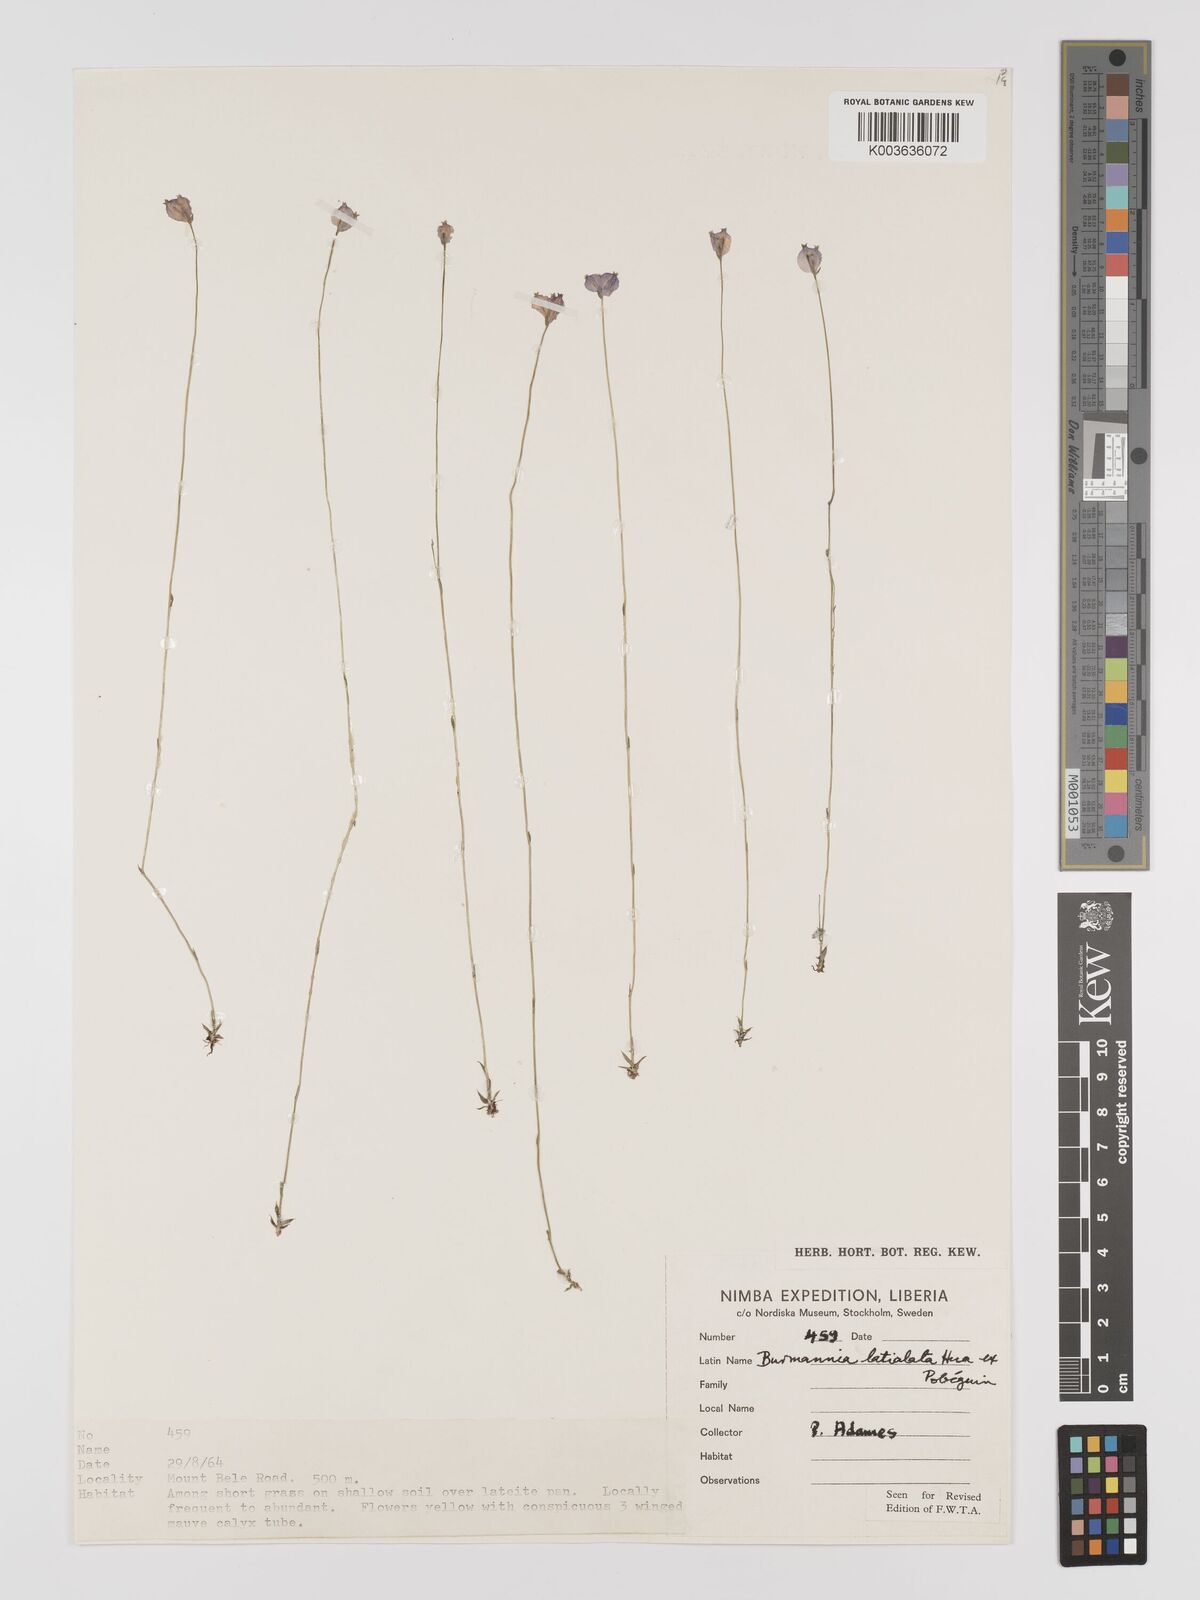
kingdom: Plantae
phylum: Tracheophyta
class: Liliopsida
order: Dioscoreales
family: Burmanniaceae
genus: Burmannia
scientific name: Burmannia madagascariensis
